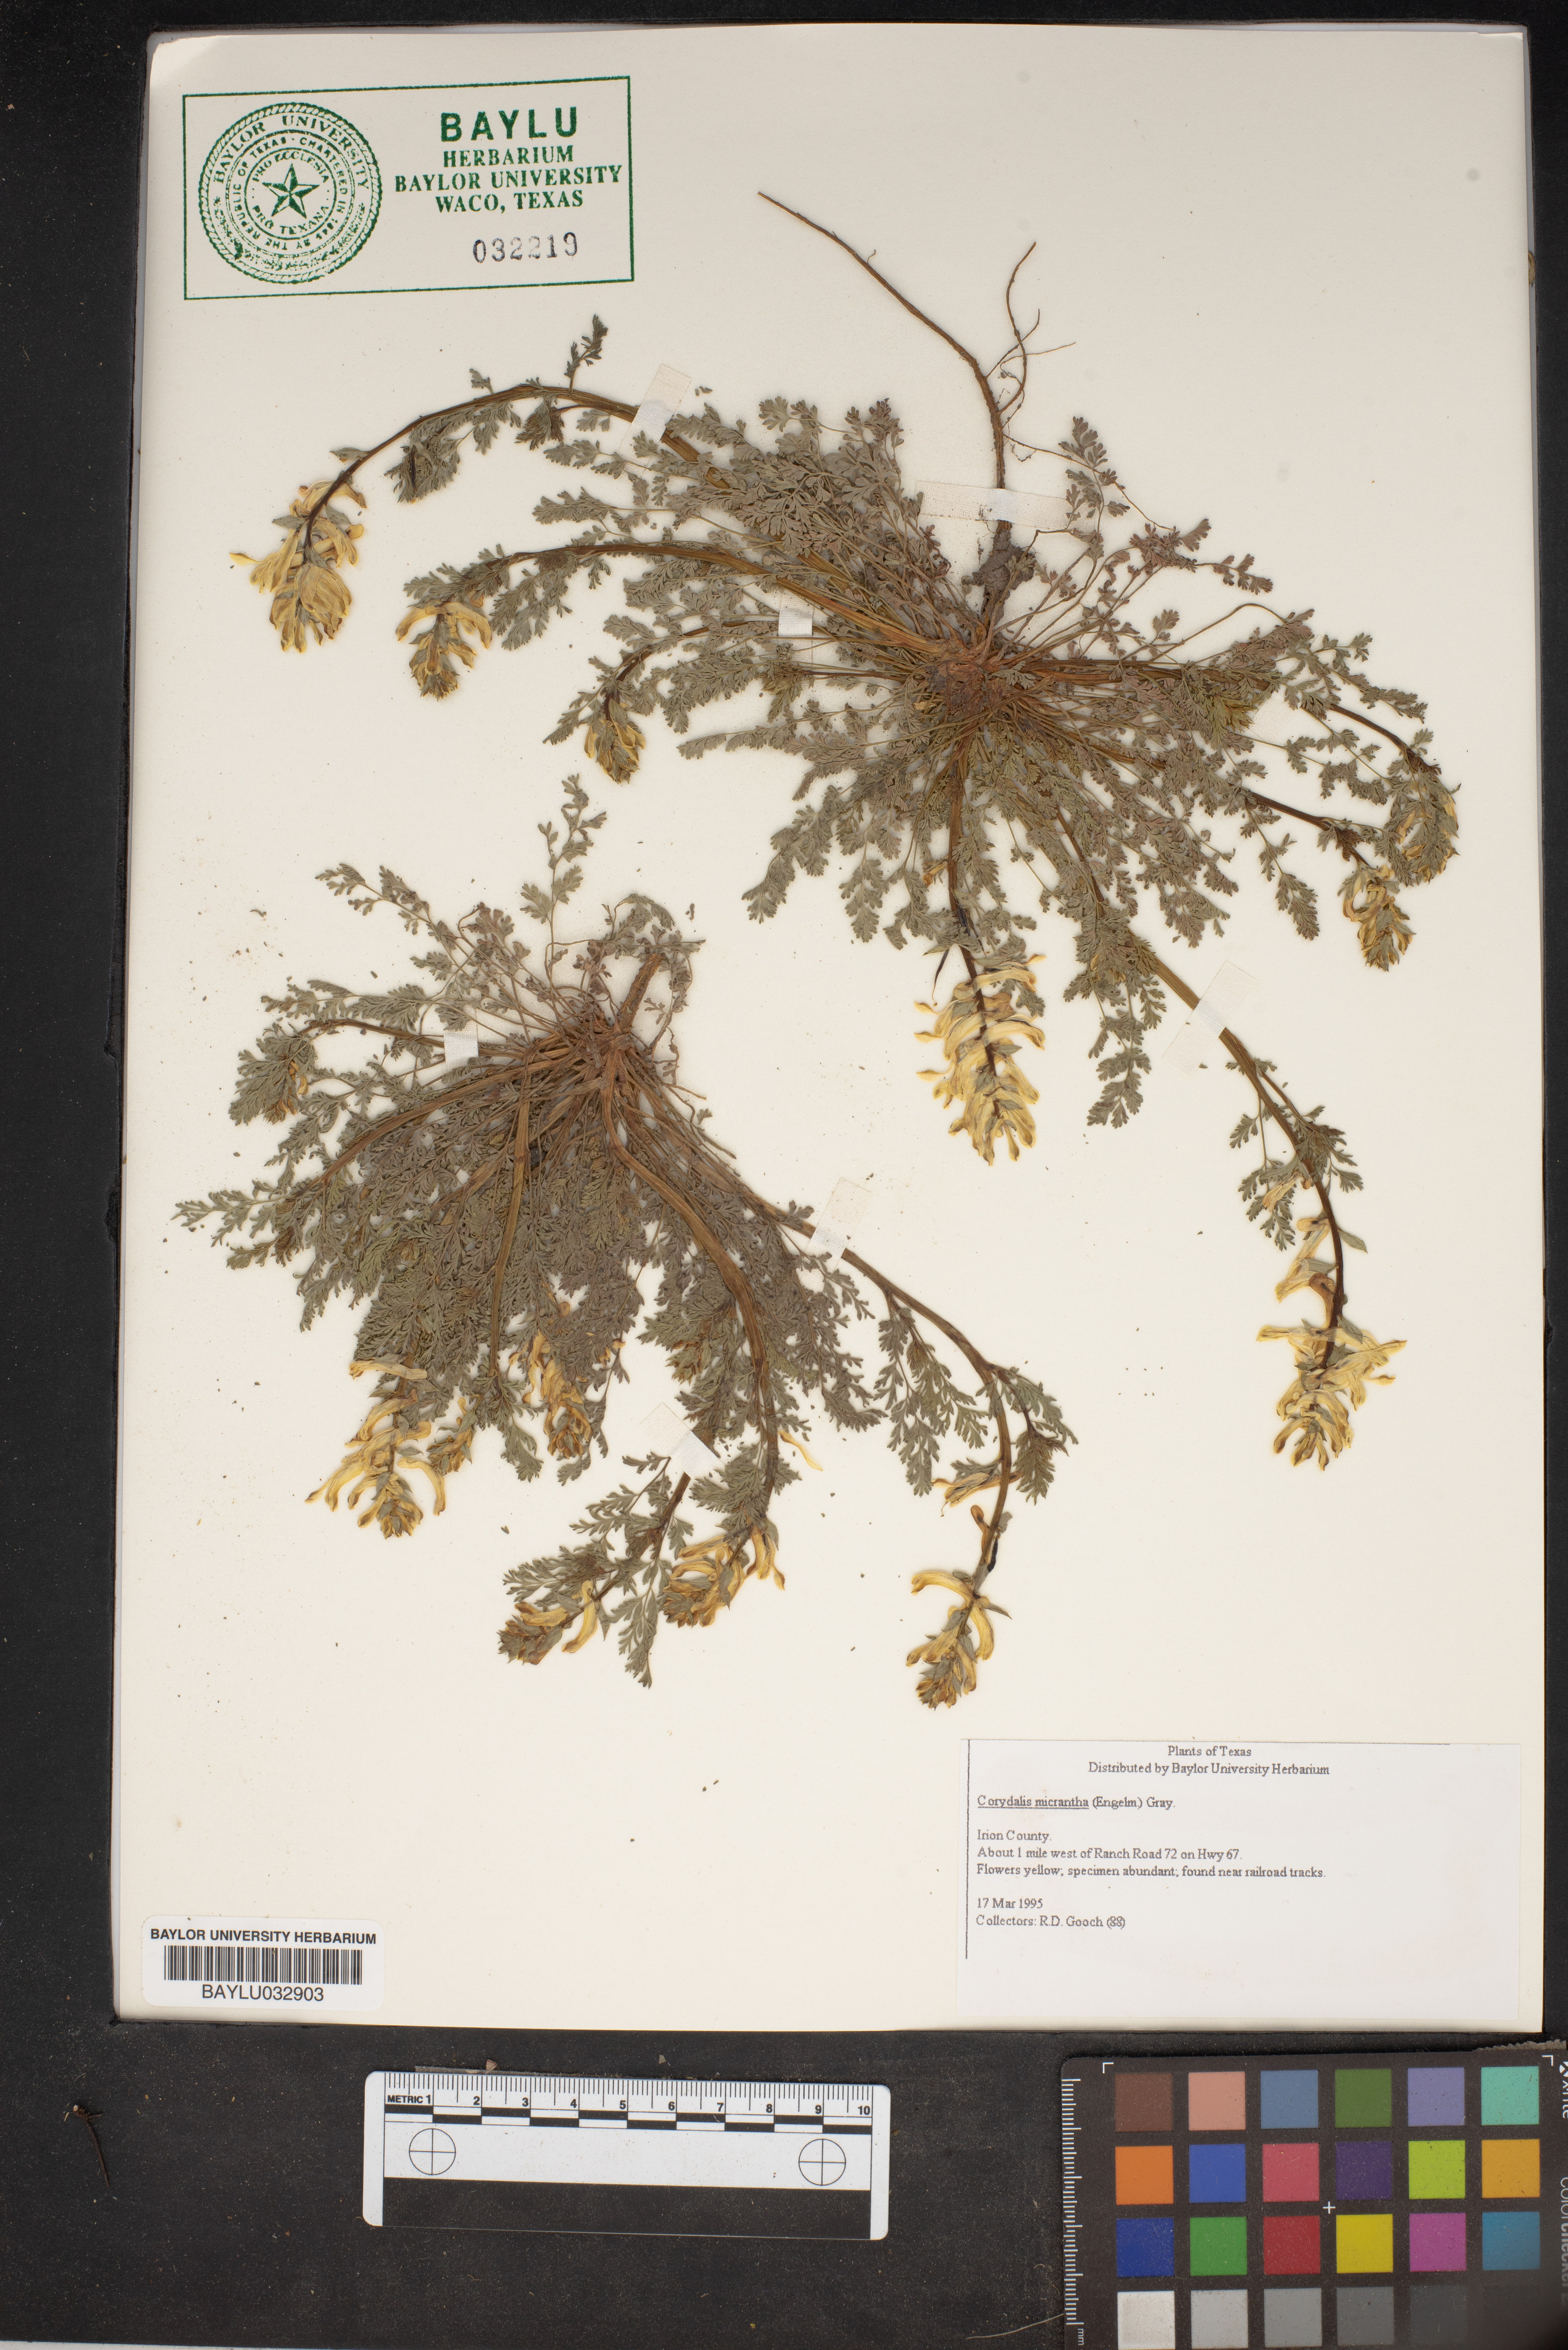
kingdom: Plantae
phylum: Tracheophyta
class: Magnoliopsida
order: Ranunculales
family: Papaveraceae
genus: Corydalis
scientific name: Corydalis micrantha
